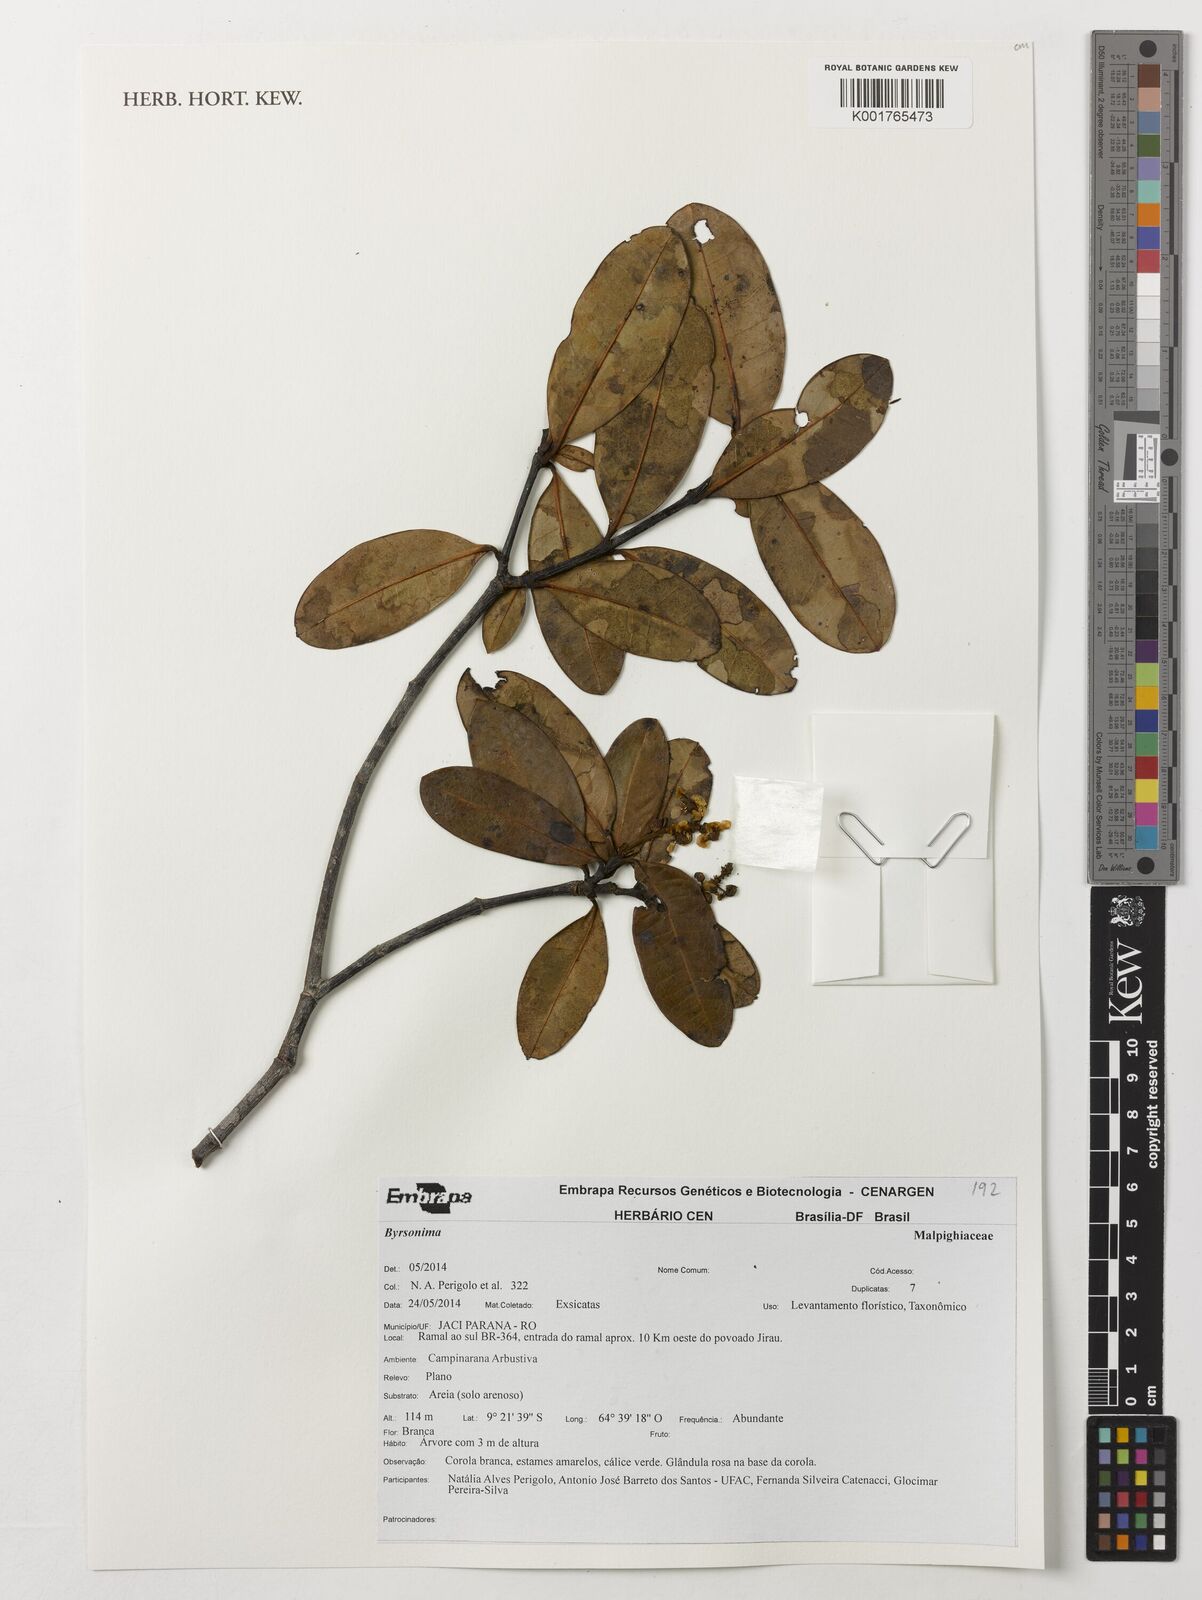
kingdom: Plantae
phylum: Tracheophyta
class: Magnoliopsida
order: Malpighiales
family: Malpighiaceae
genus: Byrsonima
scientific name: Byrsonima
